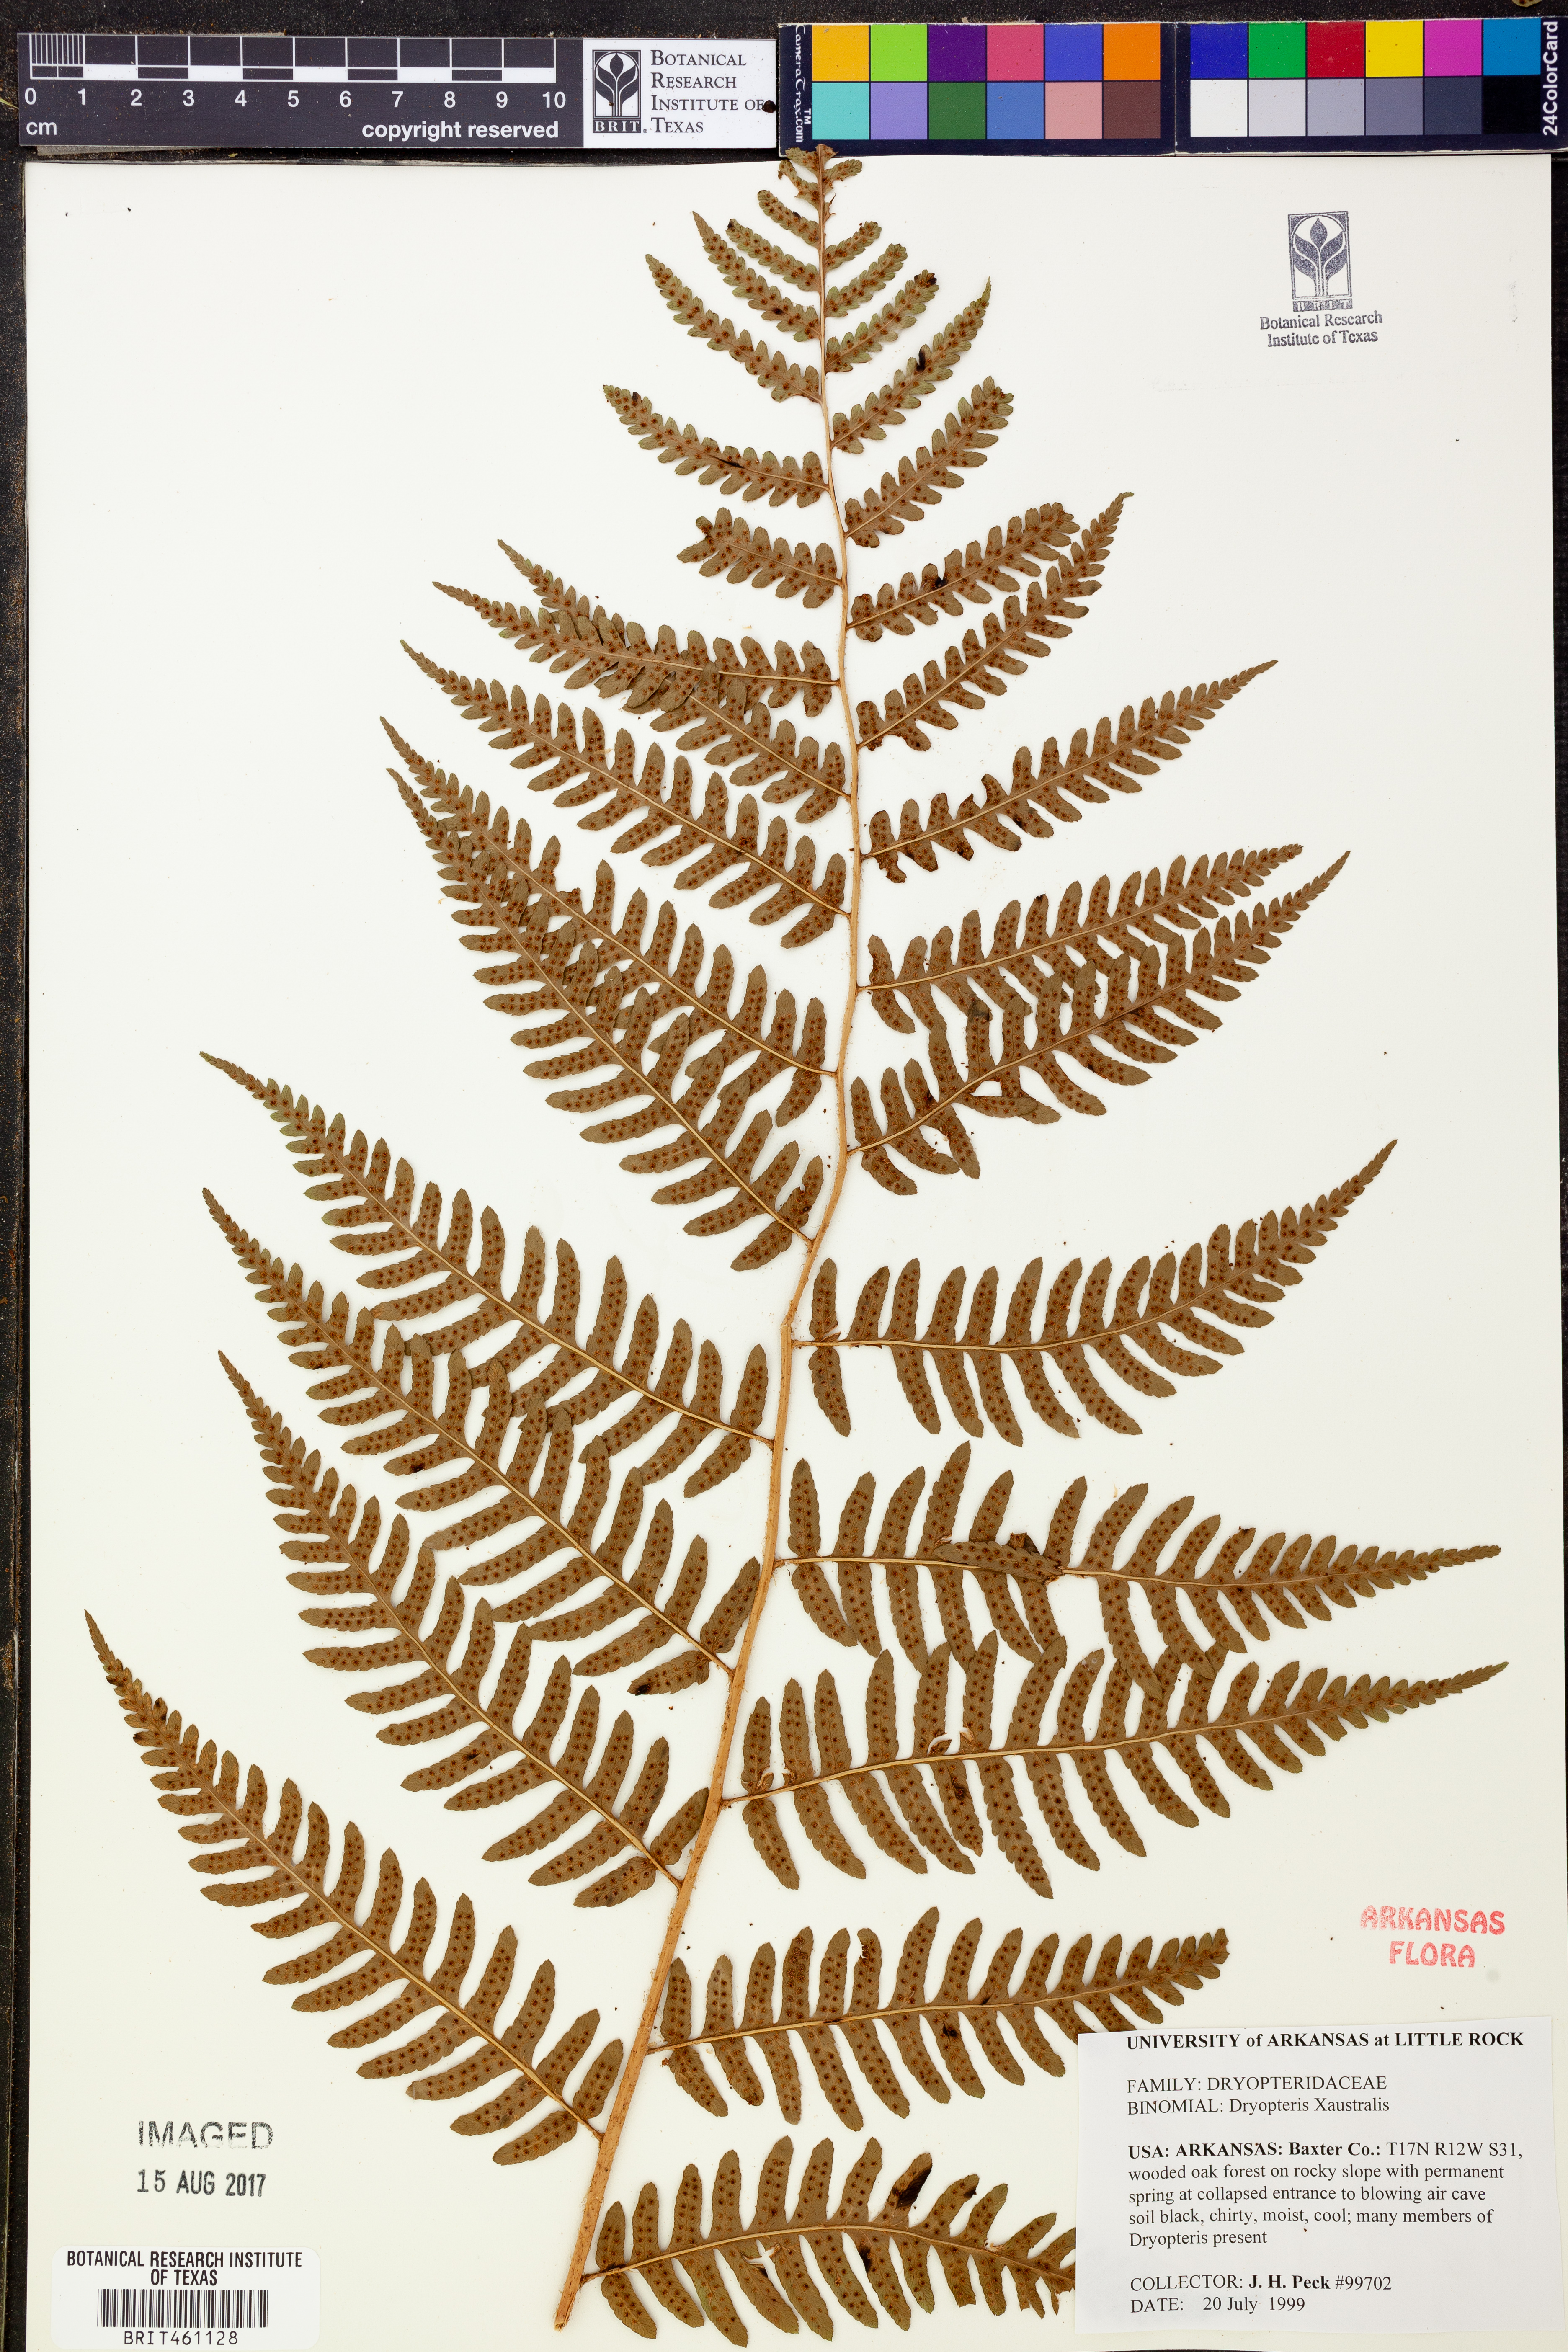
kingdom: Plantae
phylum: Tracheophyta
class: Polypodiopsida
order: Polypodiales
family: Dryopteridaceae
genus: Dryopteris
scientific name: Dryopteris
